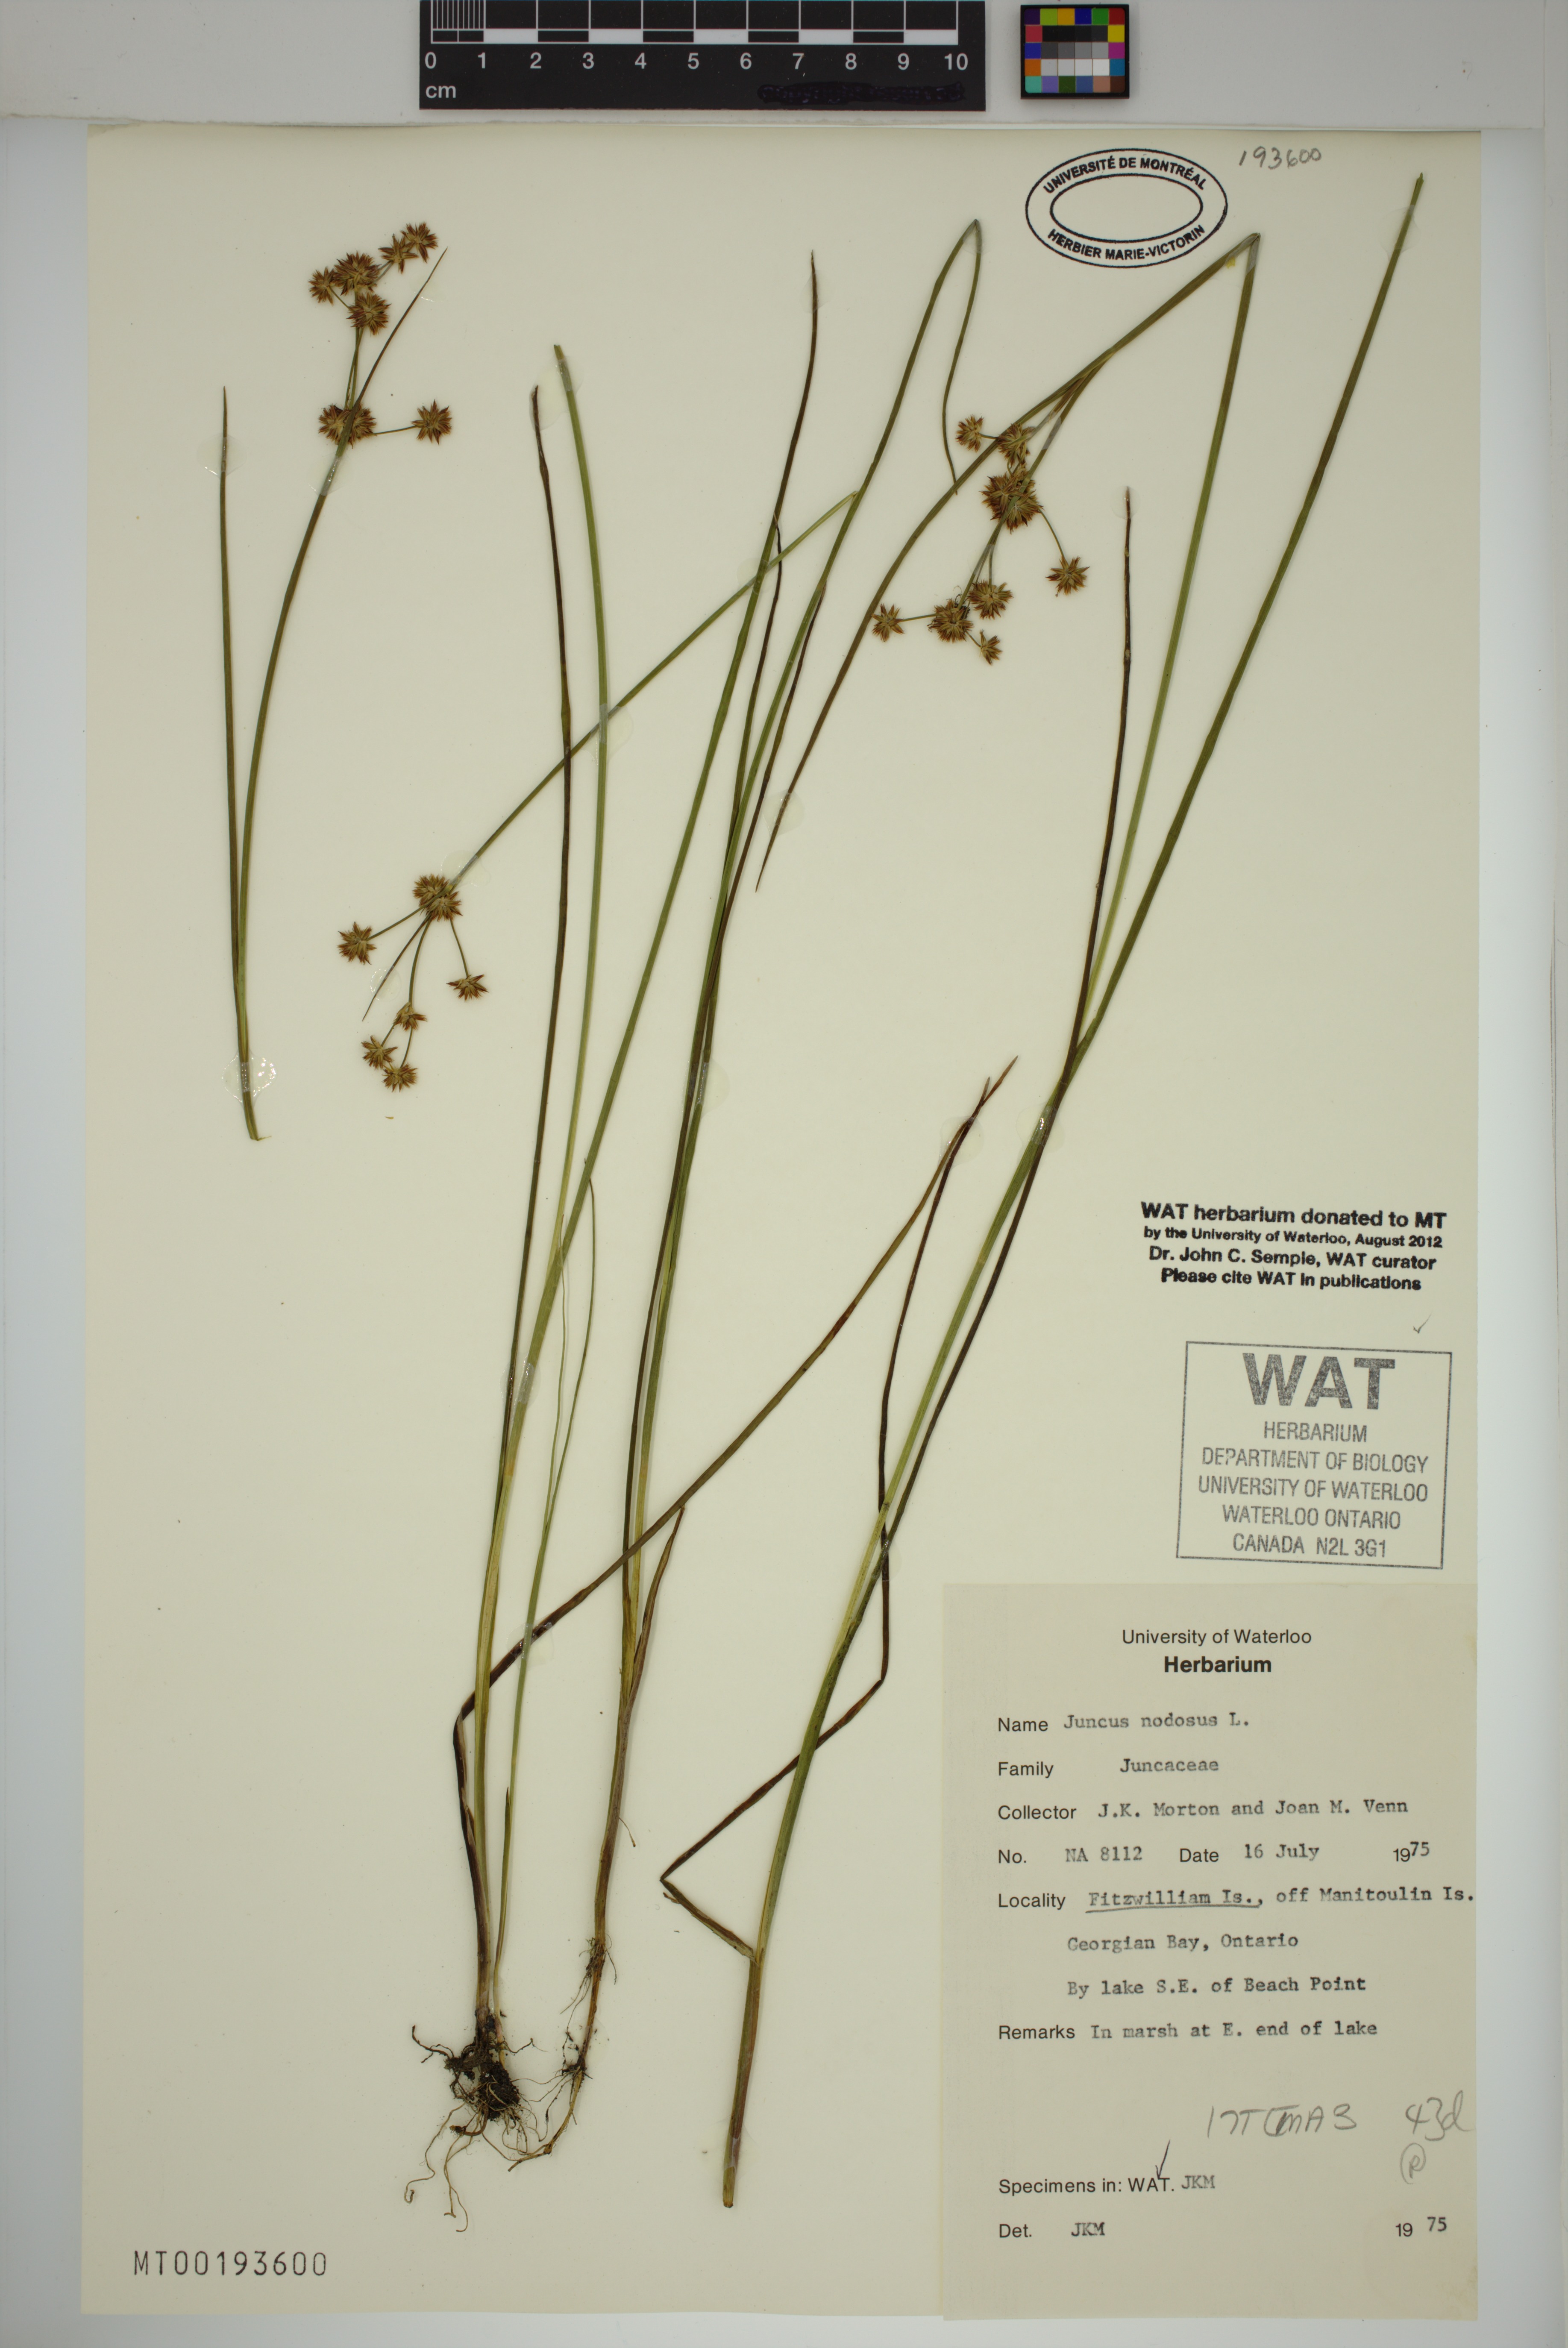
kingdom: Plantae
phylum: Tracheophyta
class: Liliopsida
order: Poales
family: Juncaceae
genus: Juncus
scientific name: Juncus nodosus
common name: Knotted rush
